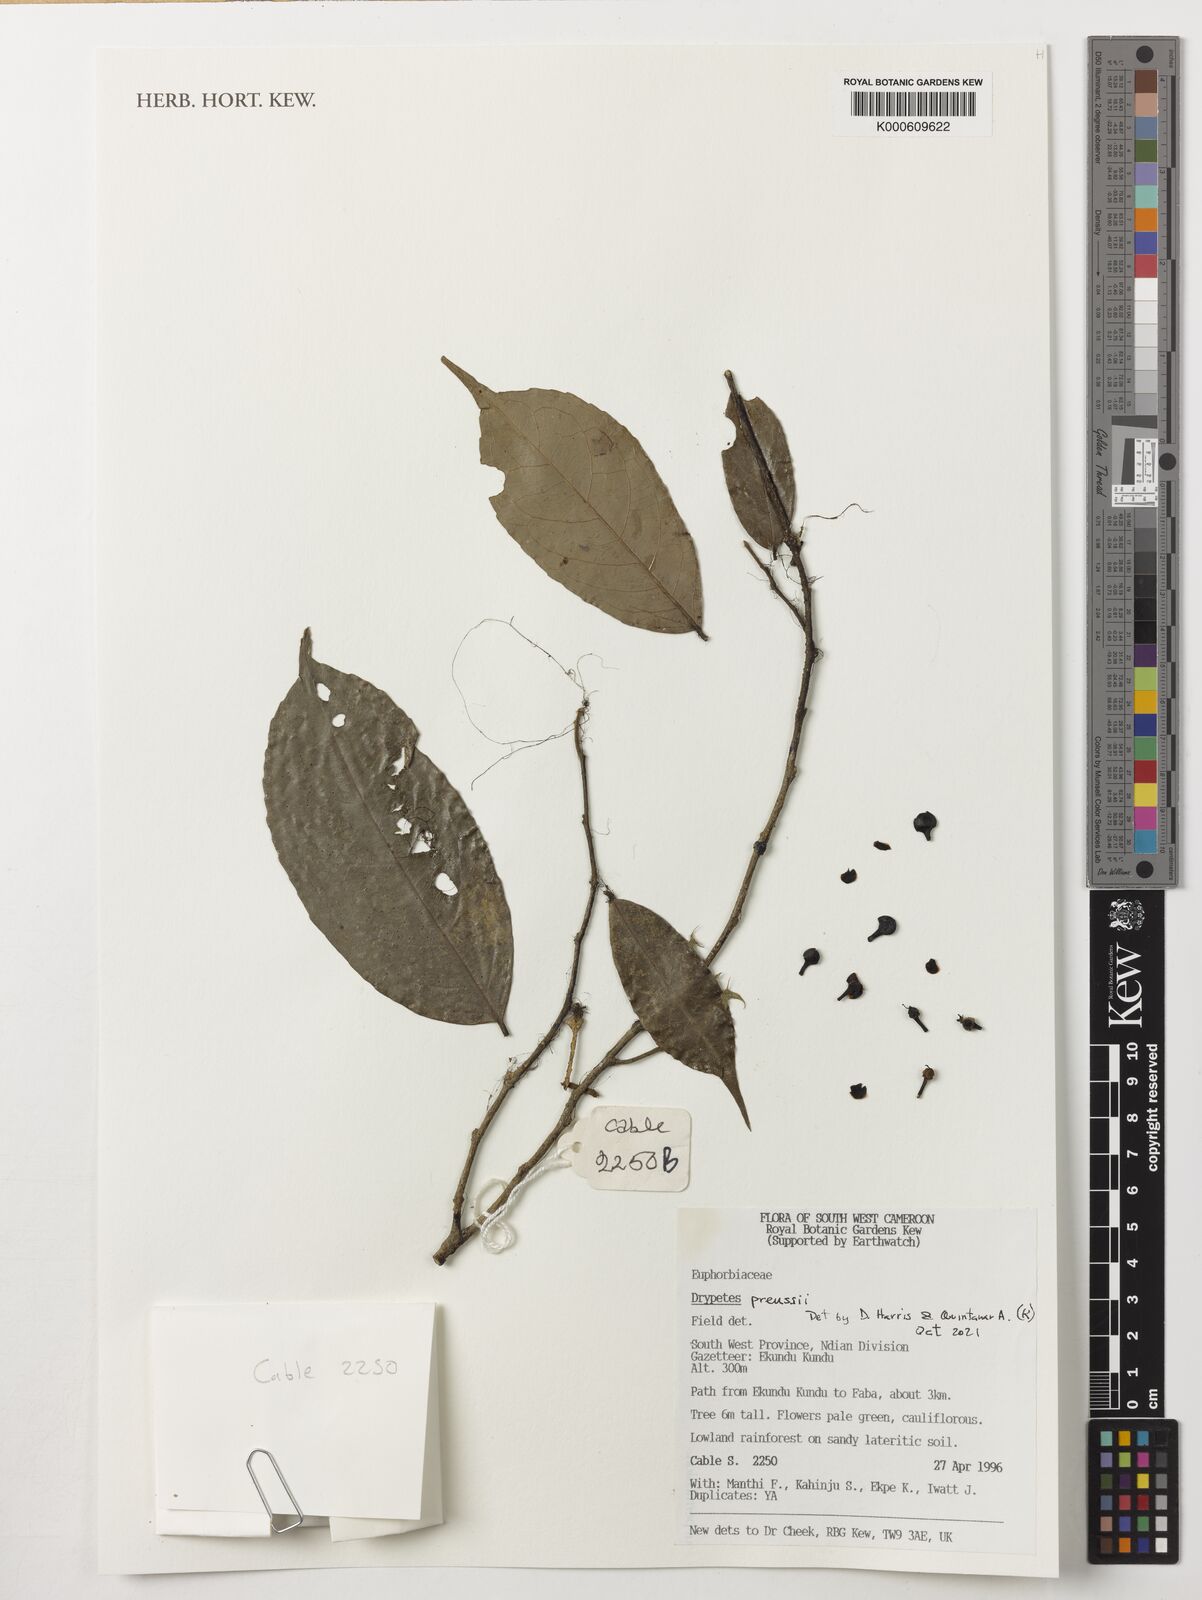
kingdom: Plantae
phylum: Tracheophyta
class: Magnoliopsida
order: Malpighiales
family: Putranjivaceae
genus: Drypetes
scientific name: Drypetes preussii
